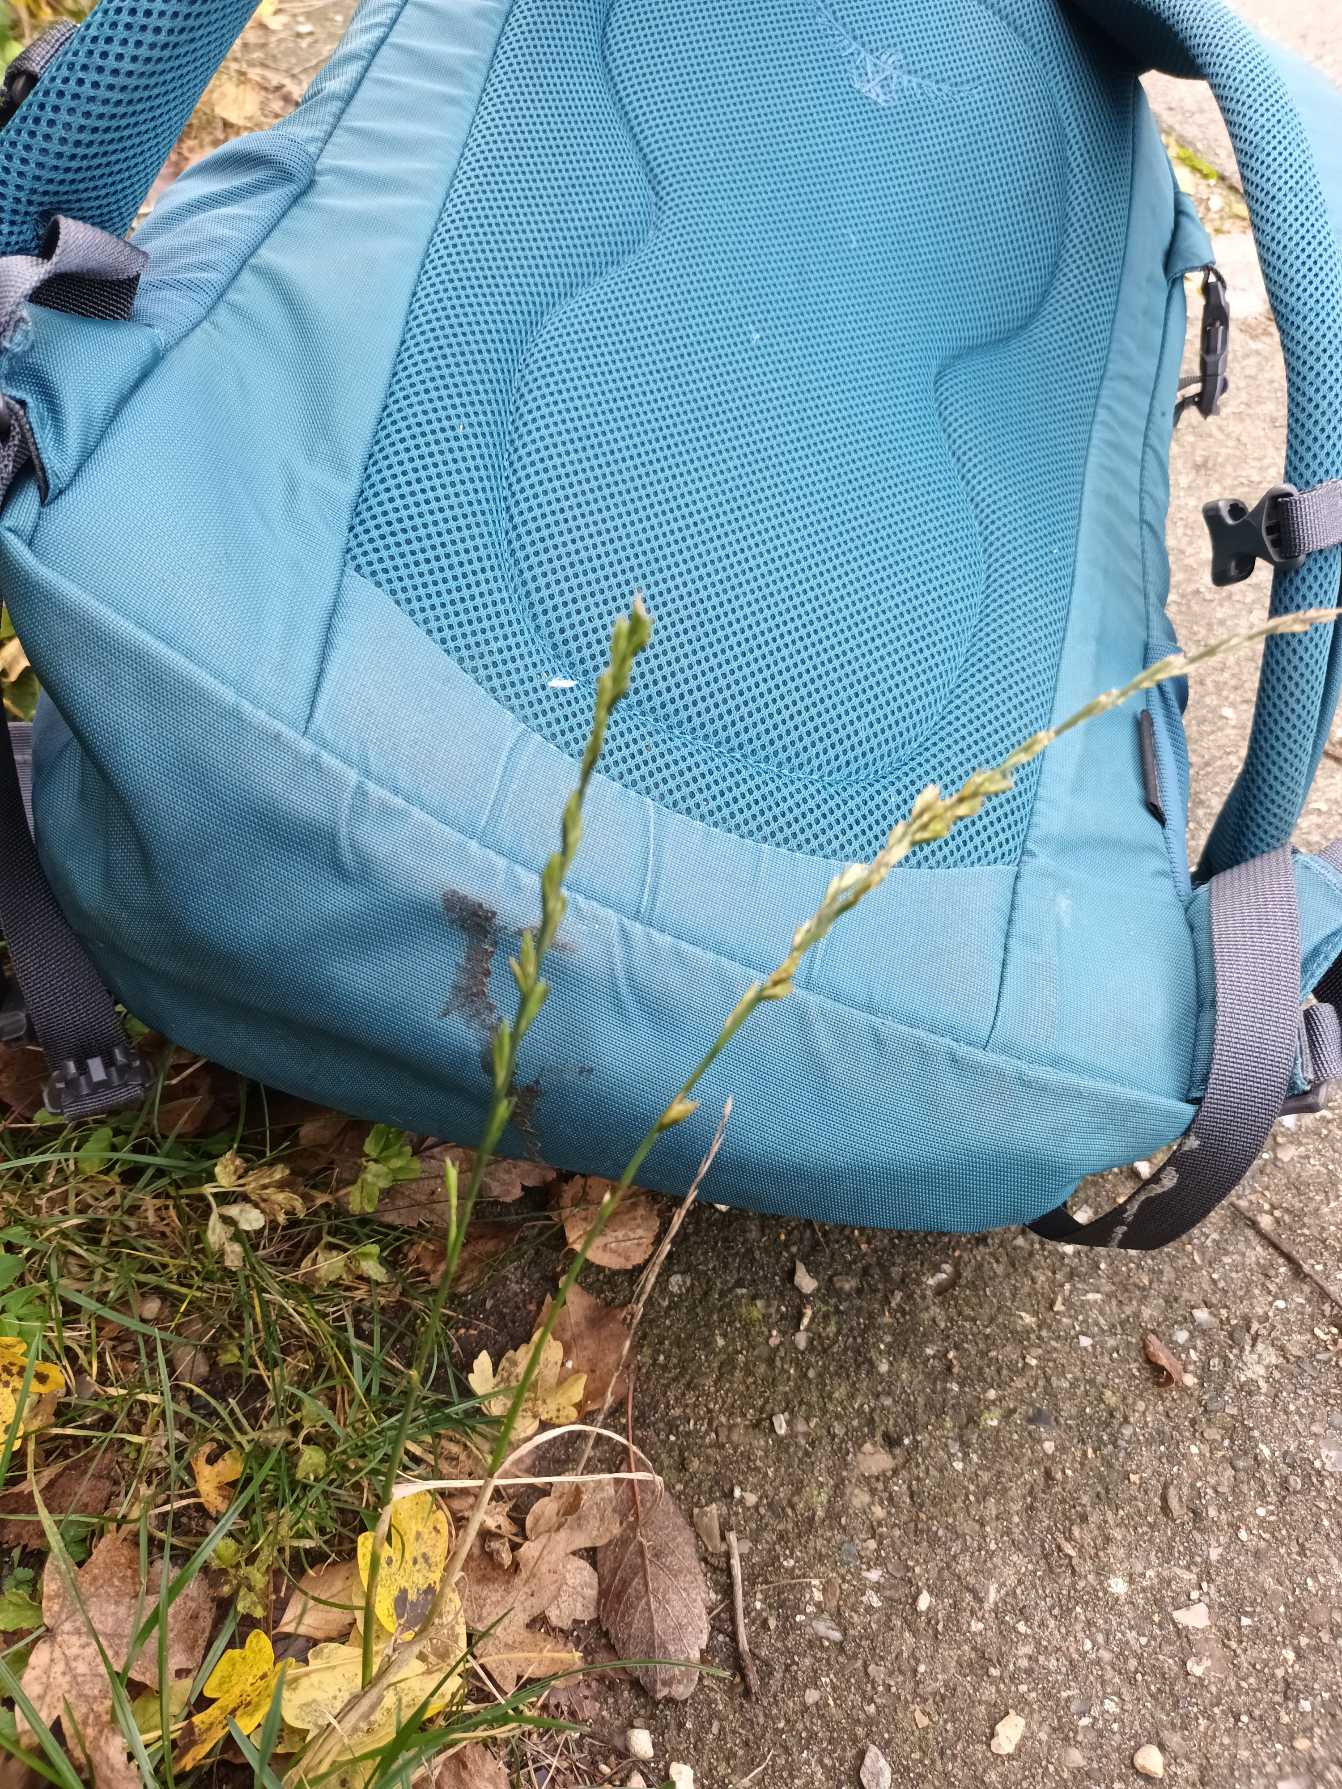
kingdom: Plantae
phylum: Tracheophyta
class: Liliopsida
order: Poales
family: Poaceae
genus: Lolium
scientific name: Lolium perenne
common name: Almindelig rajgræs
